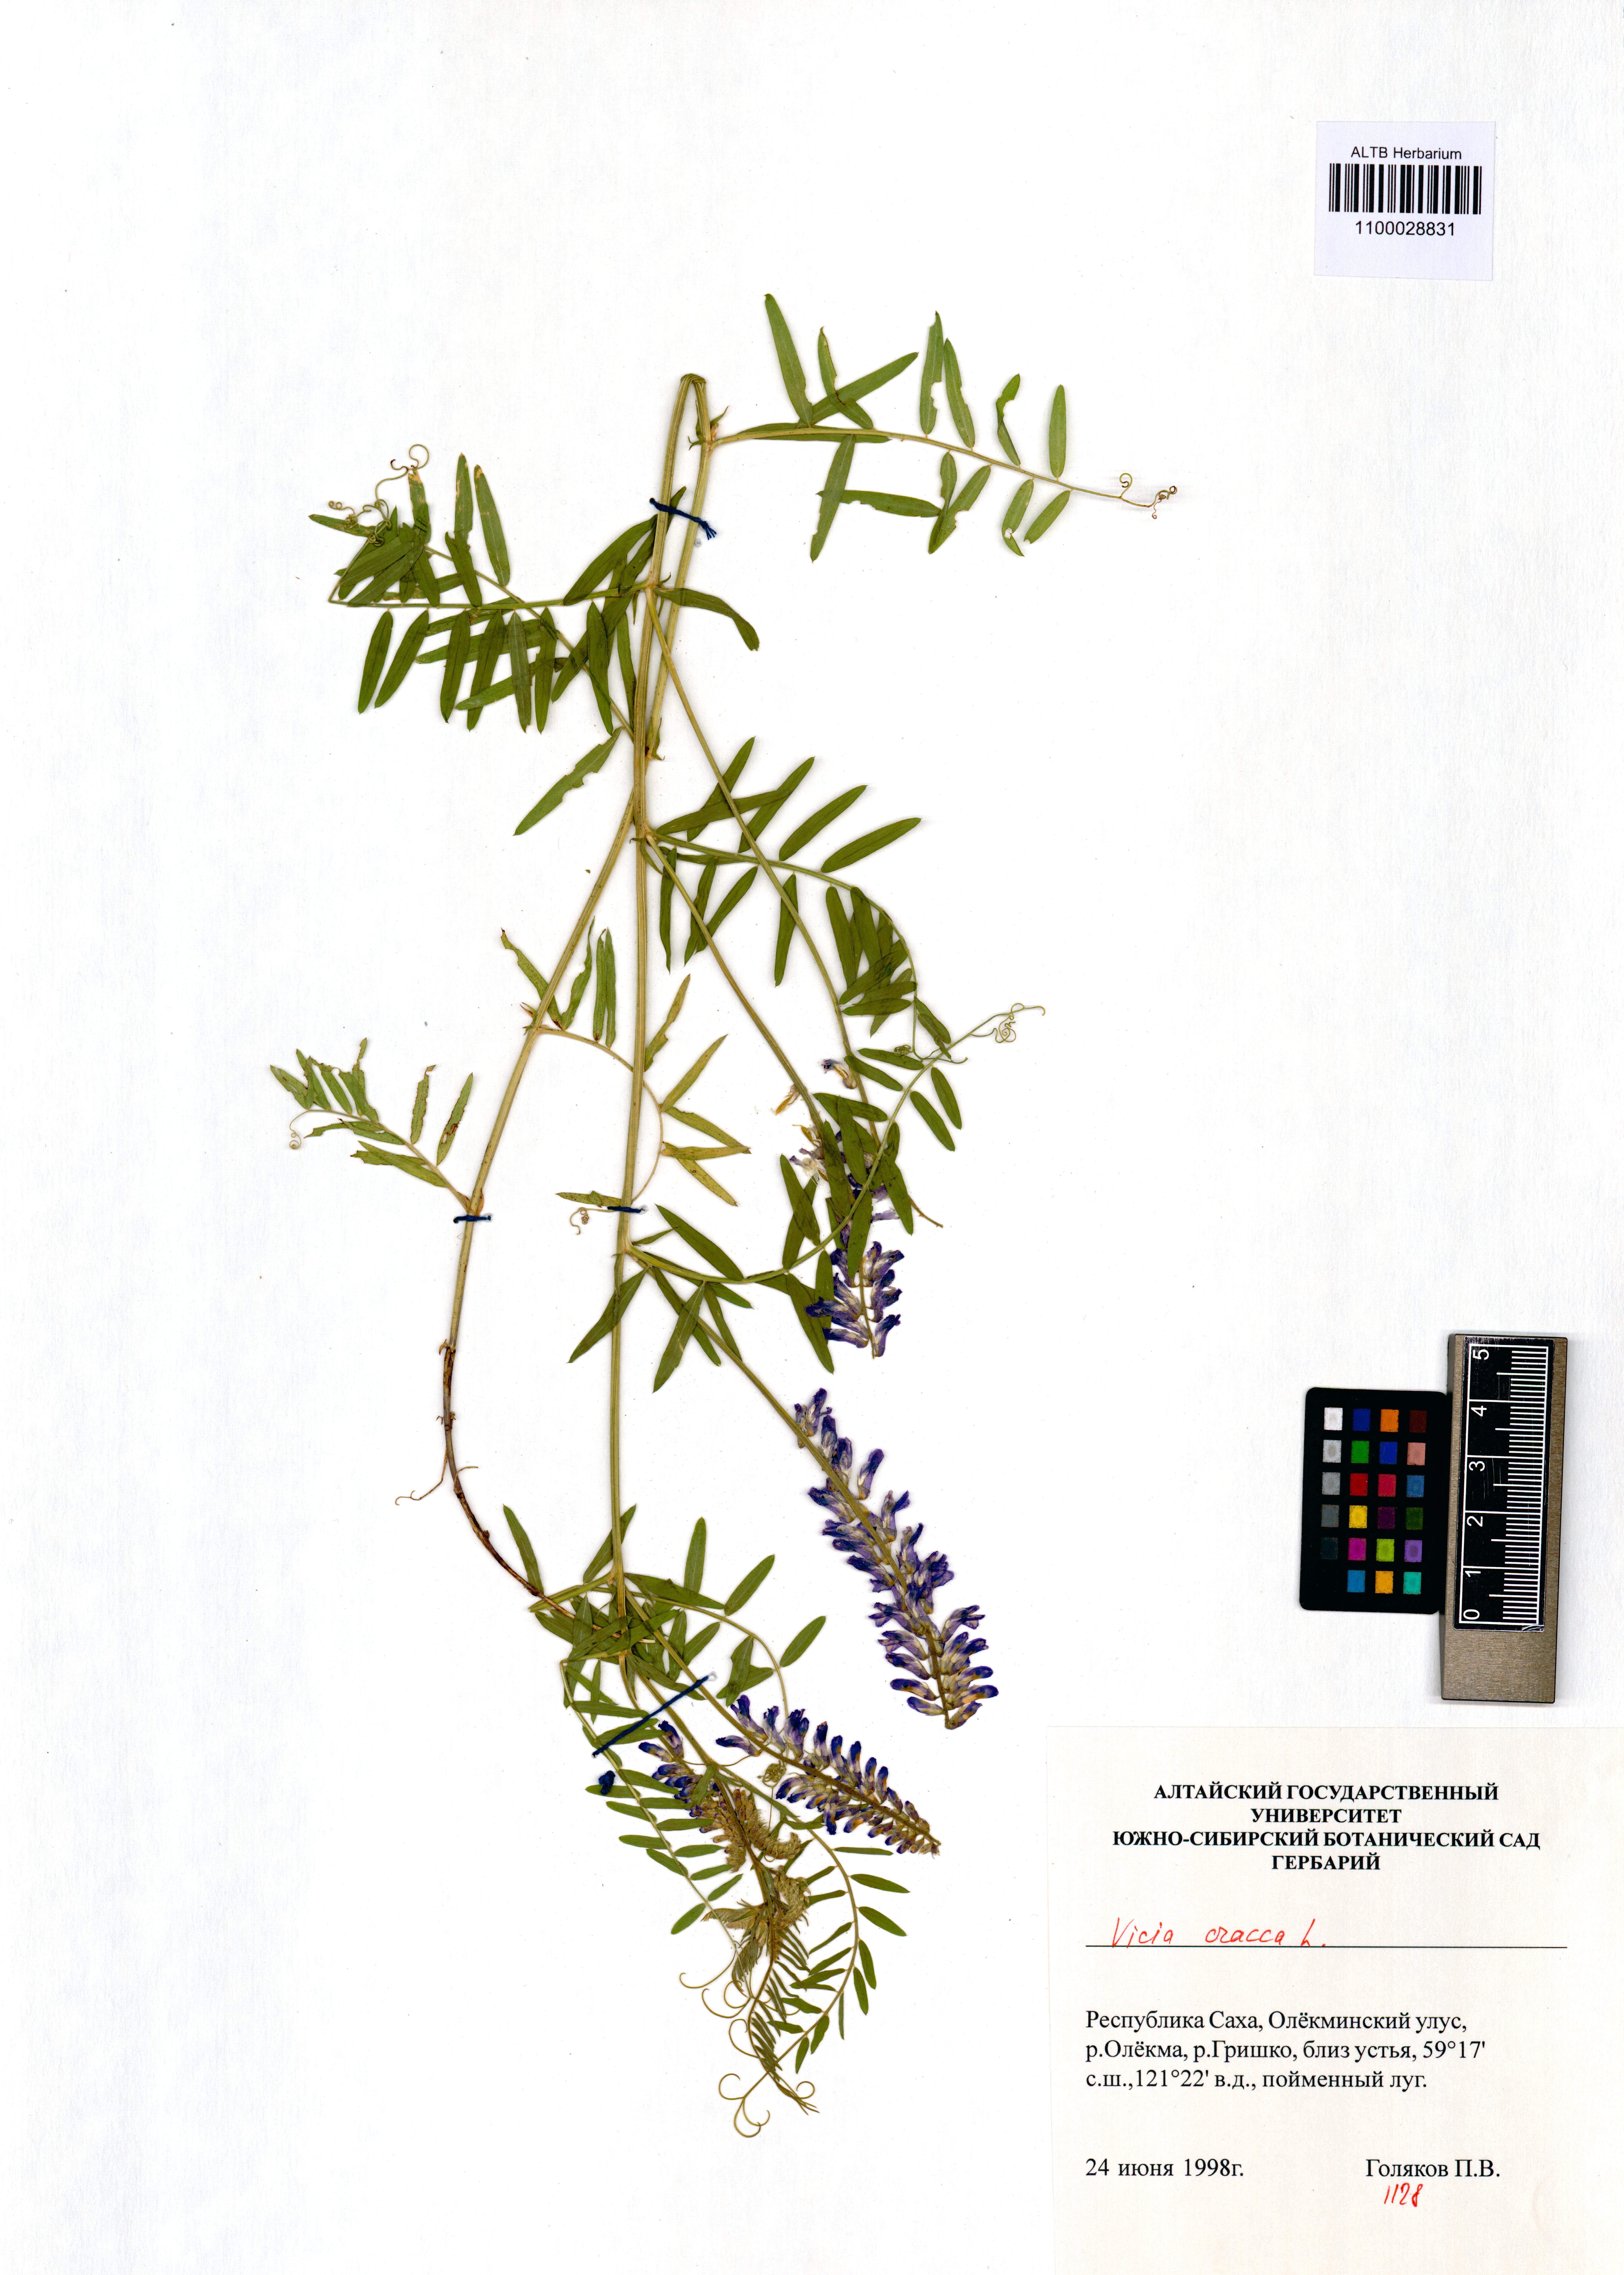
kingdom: Plantae
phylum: Tracheophyta
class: Magnoliopsida
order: Fabales
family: Fabaceae
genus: Vicia
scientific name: Vicia cracca
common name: Bird vetch
